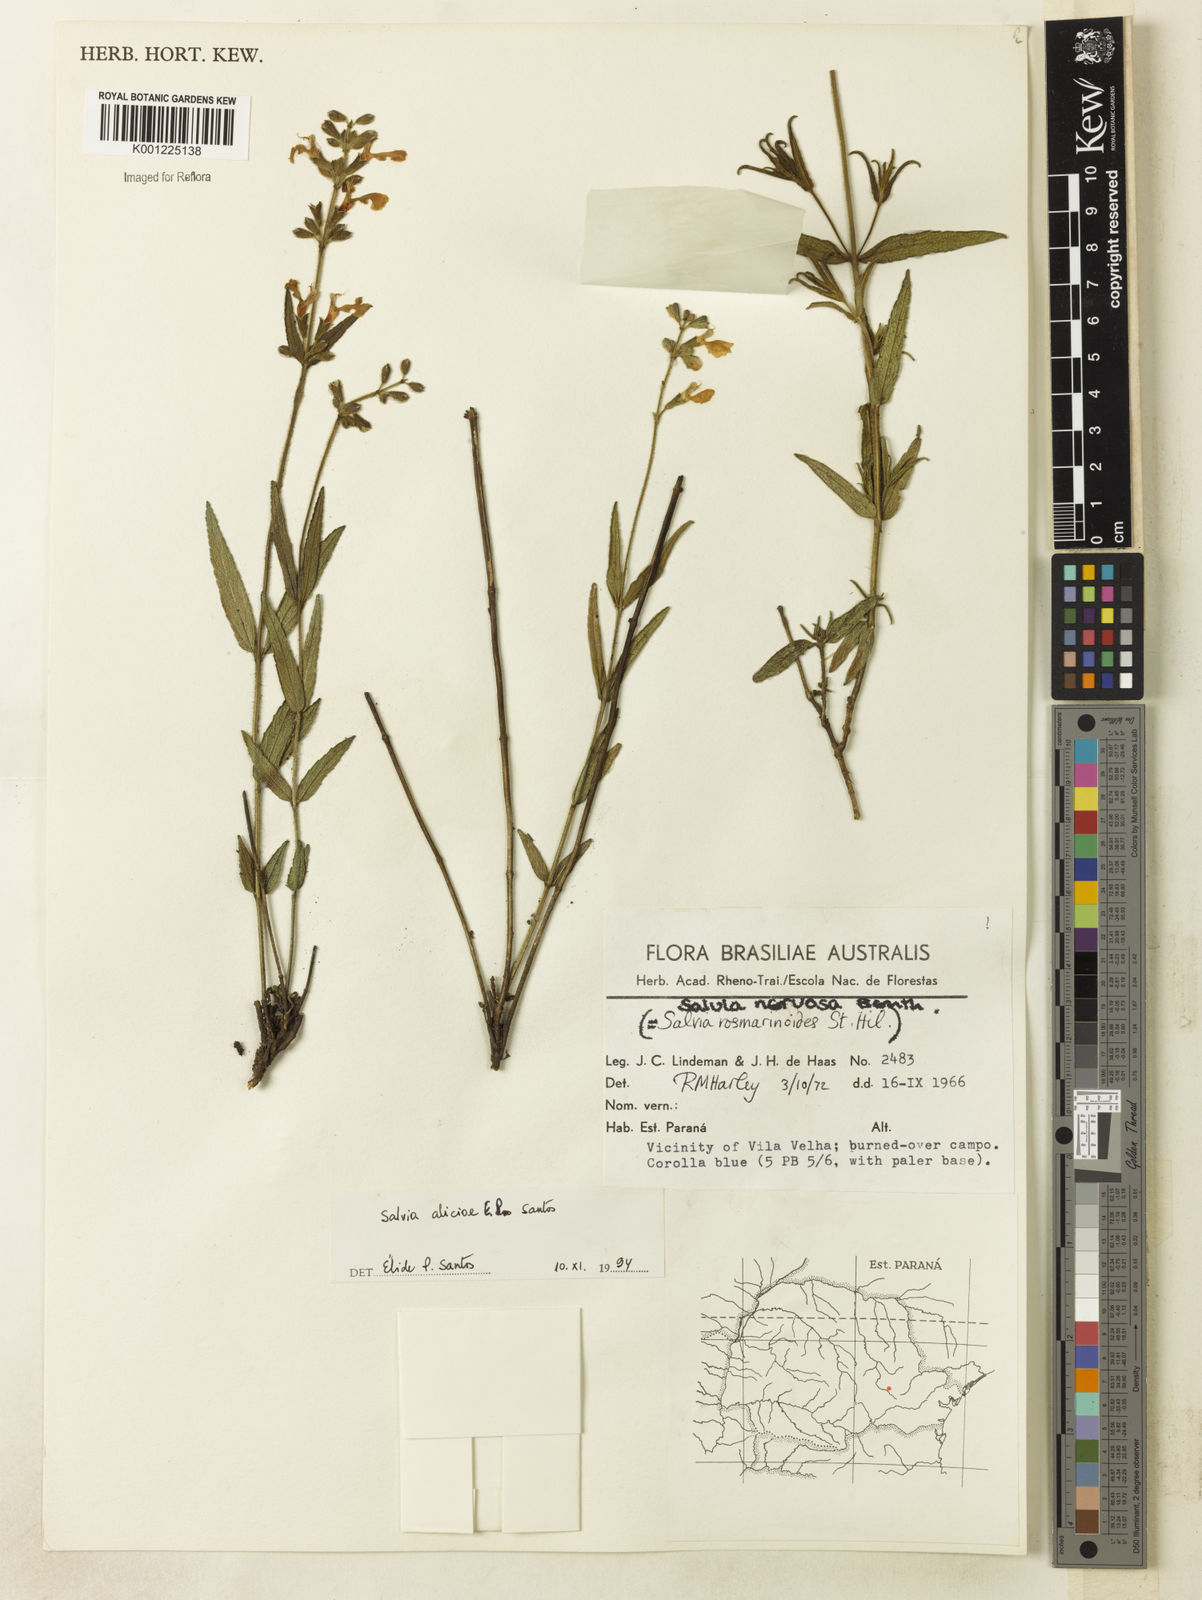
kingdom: Plantae
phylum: Tracheophyta
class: Magnoliopsida
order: Lamiales
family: Lamiaceae
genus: Salvia
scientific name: Salvia aliciae
